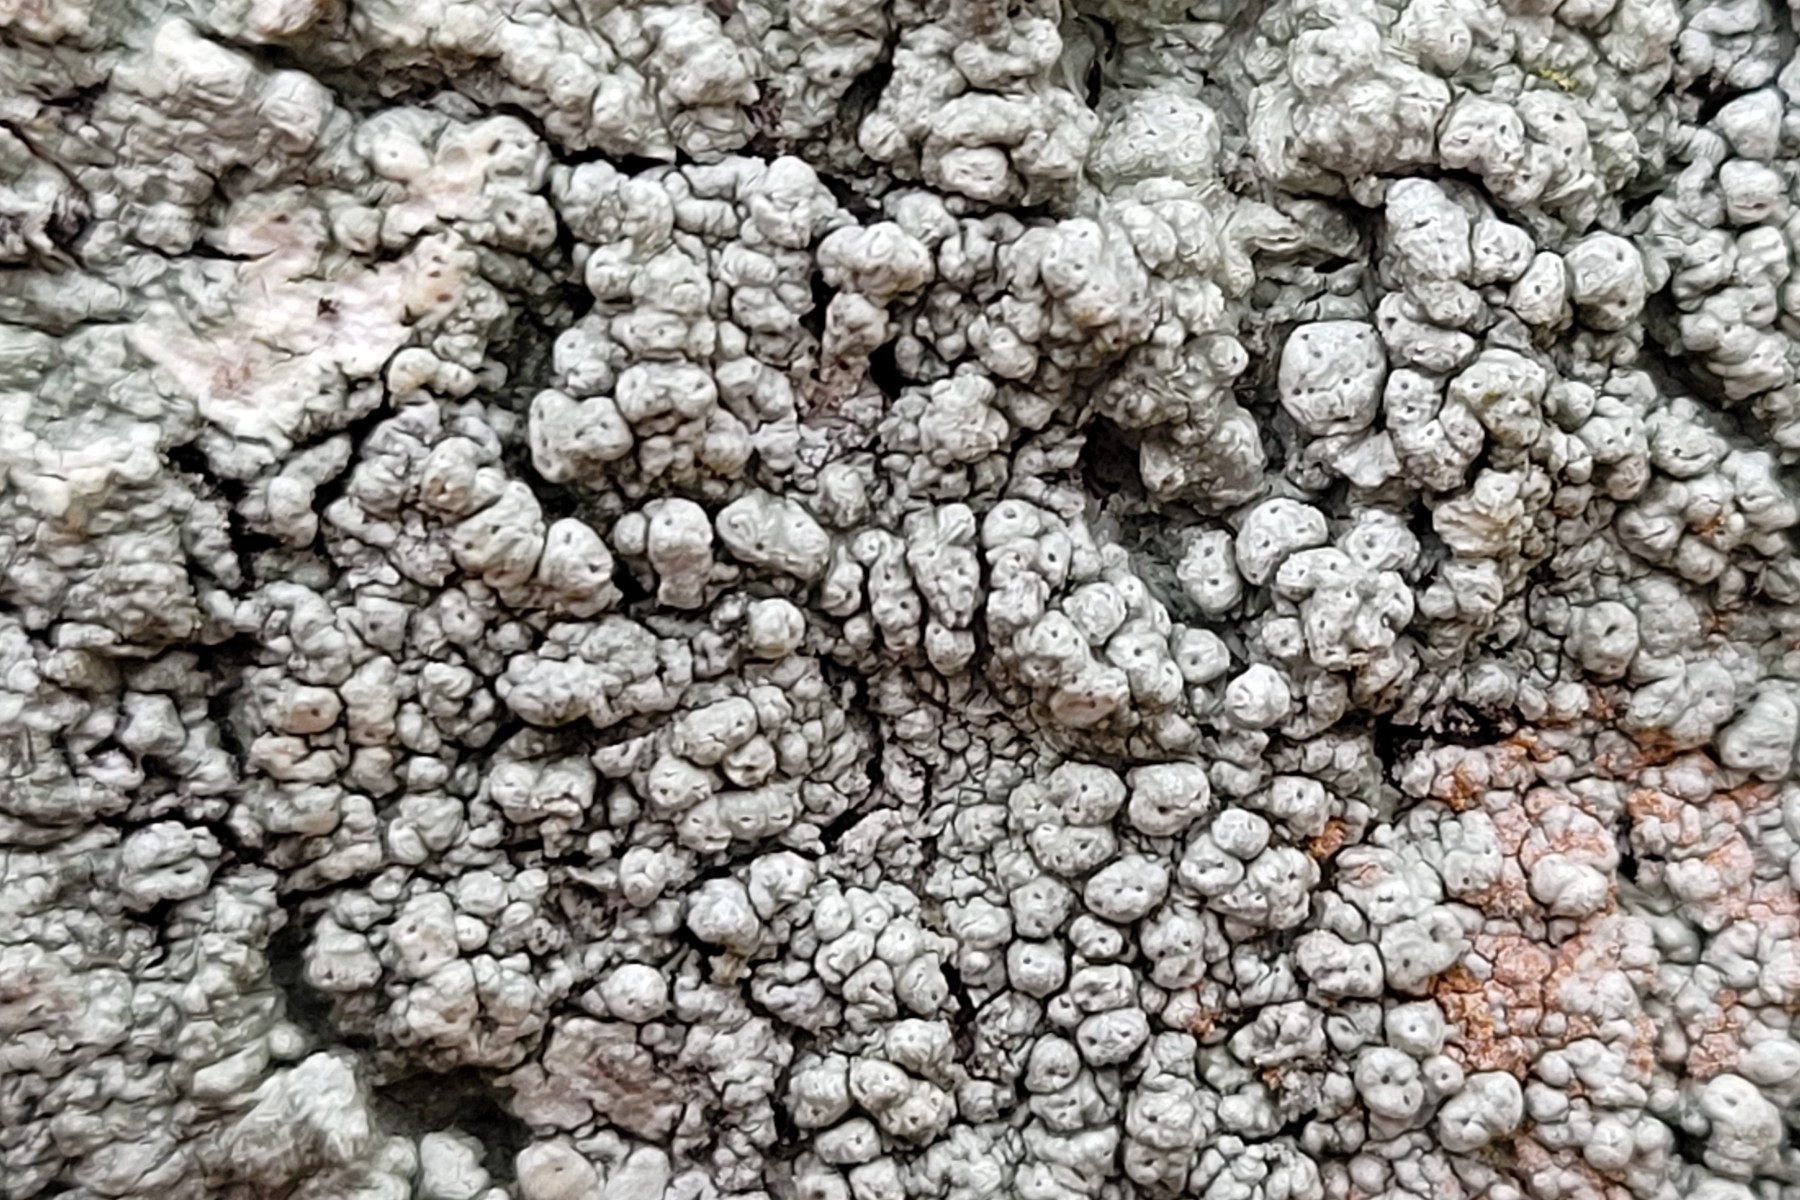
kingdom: Fungi
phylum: Ascomycota
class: Lecanoromycetes
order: Pertusariales
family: Pertusariaceae
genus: Pertusaria
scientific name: Pertusaria pertusa
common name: almindelig prikvortelav
